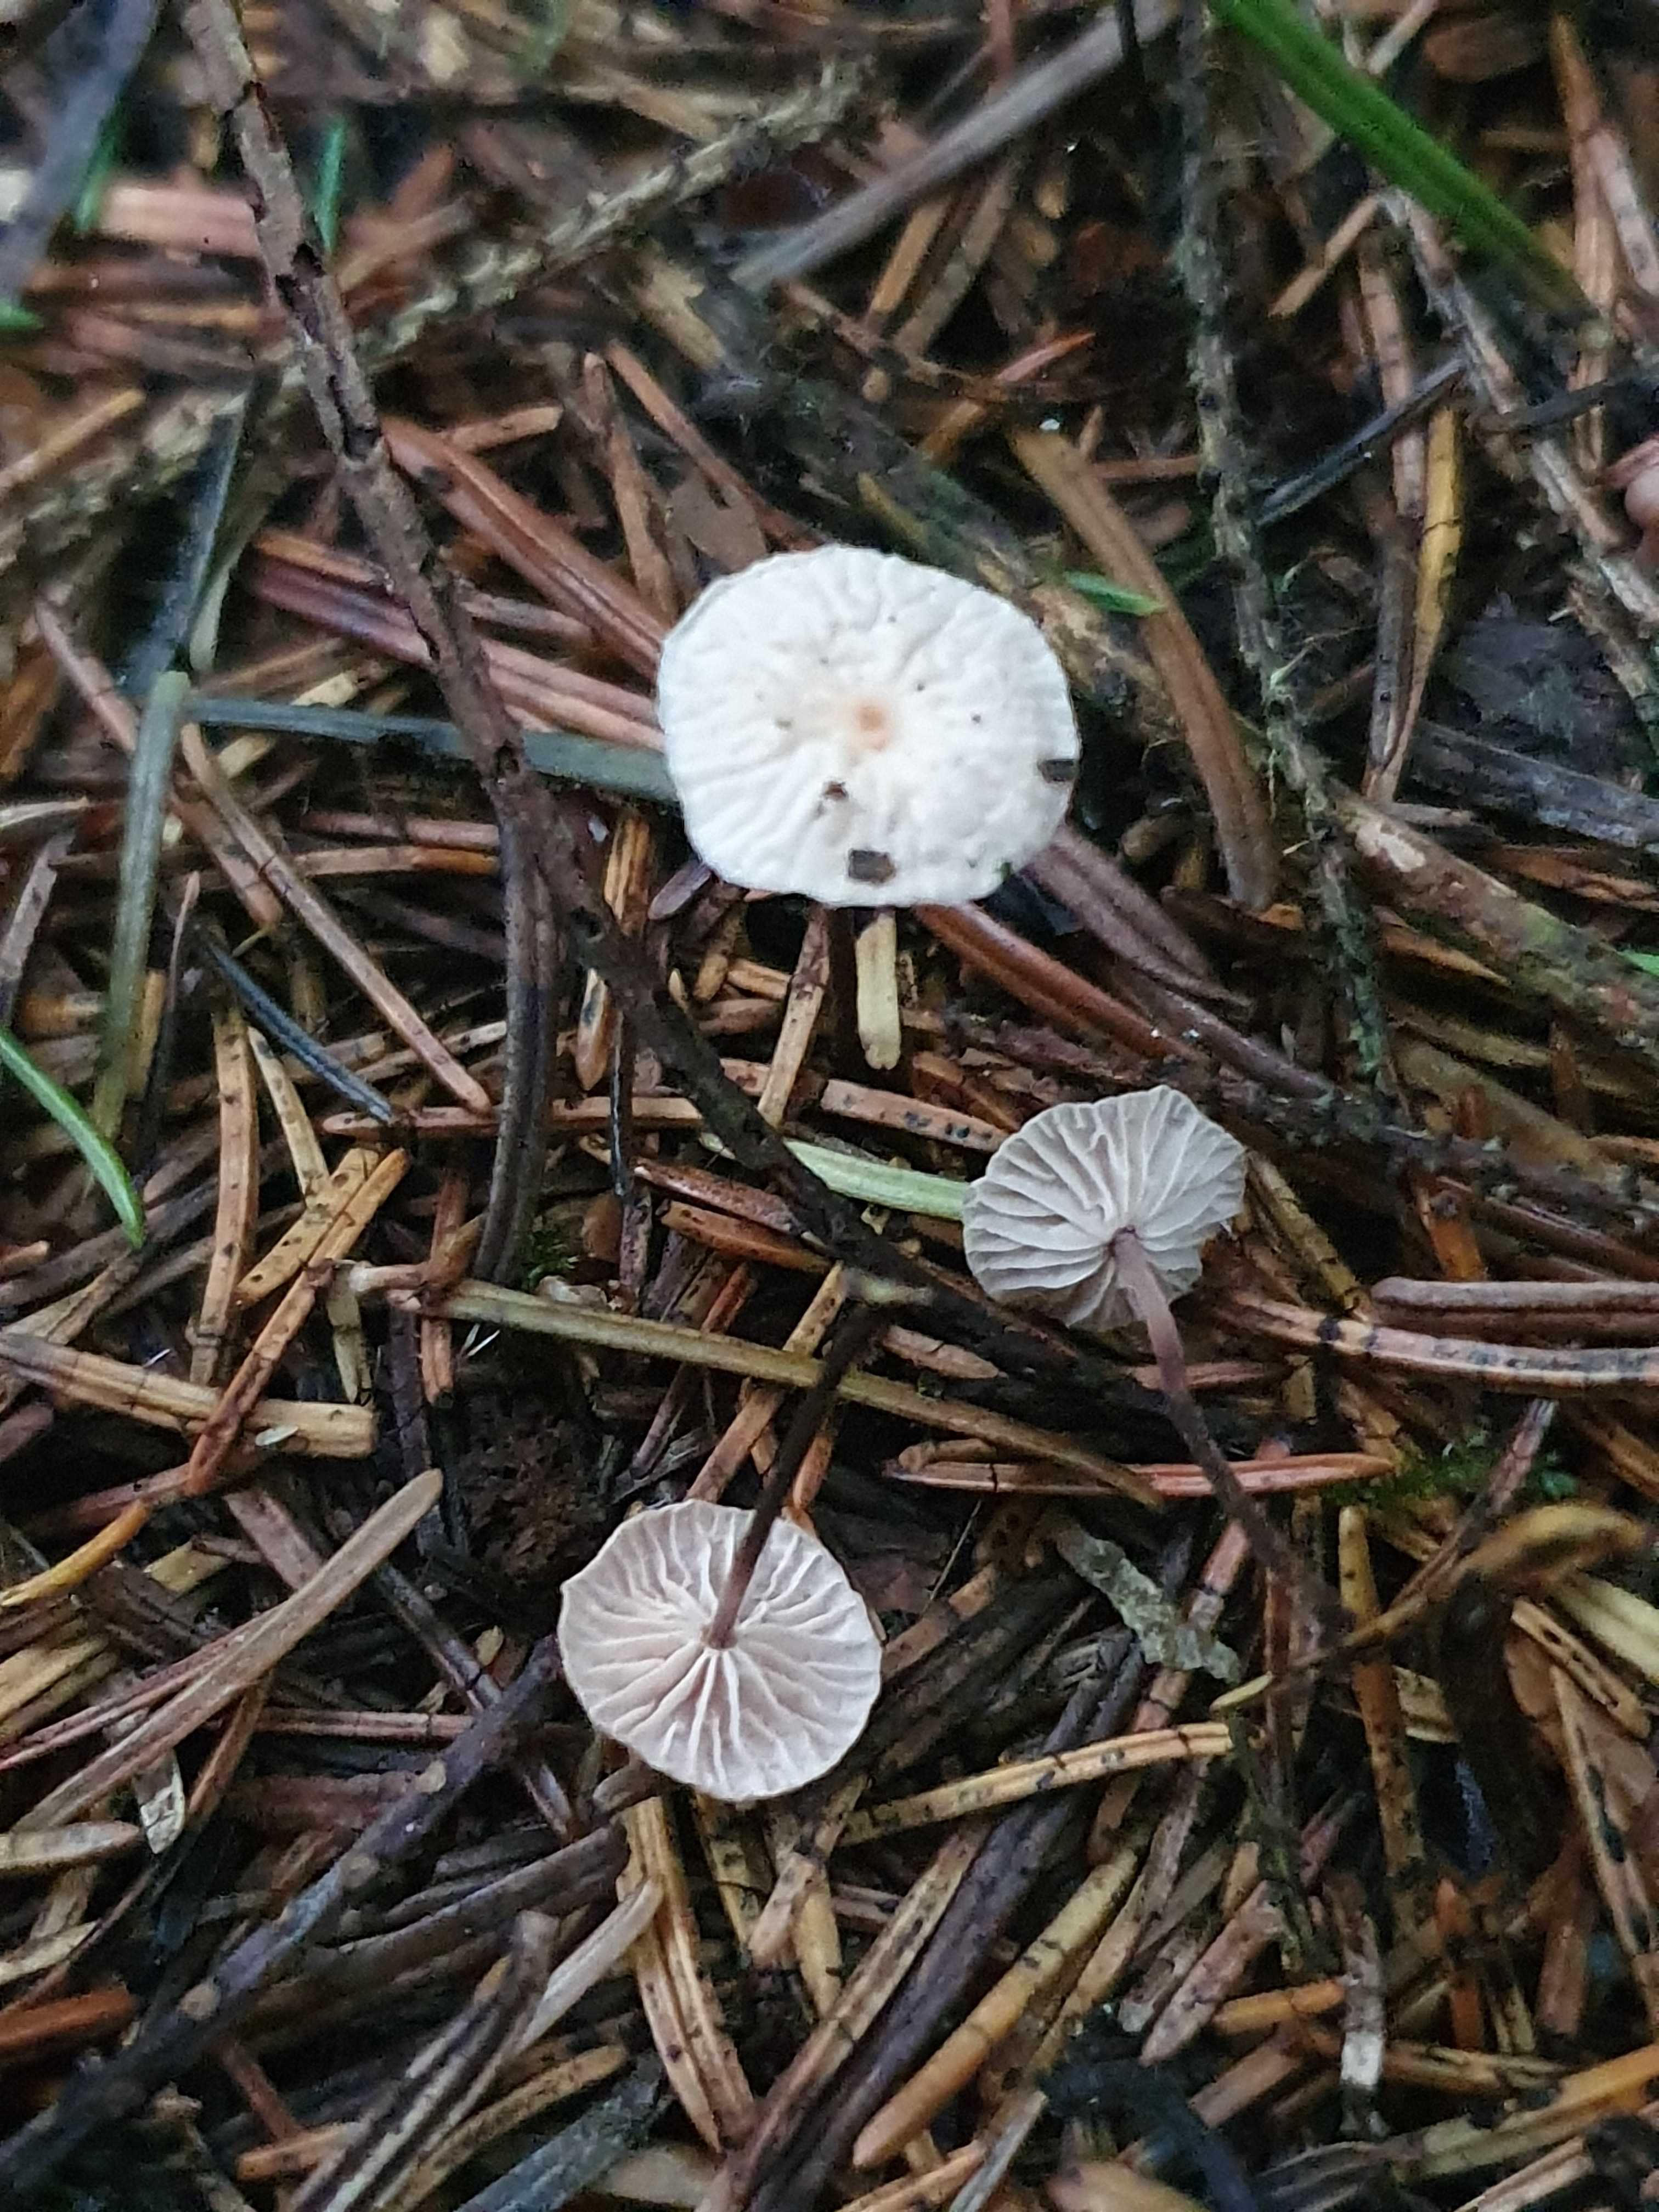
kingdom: Fungi
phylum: Basidiomycota
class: Agaricomycetes
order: Agaricales
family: Omphalotaceae
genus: Paragymnopus
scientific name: Paragymnopus perforans
